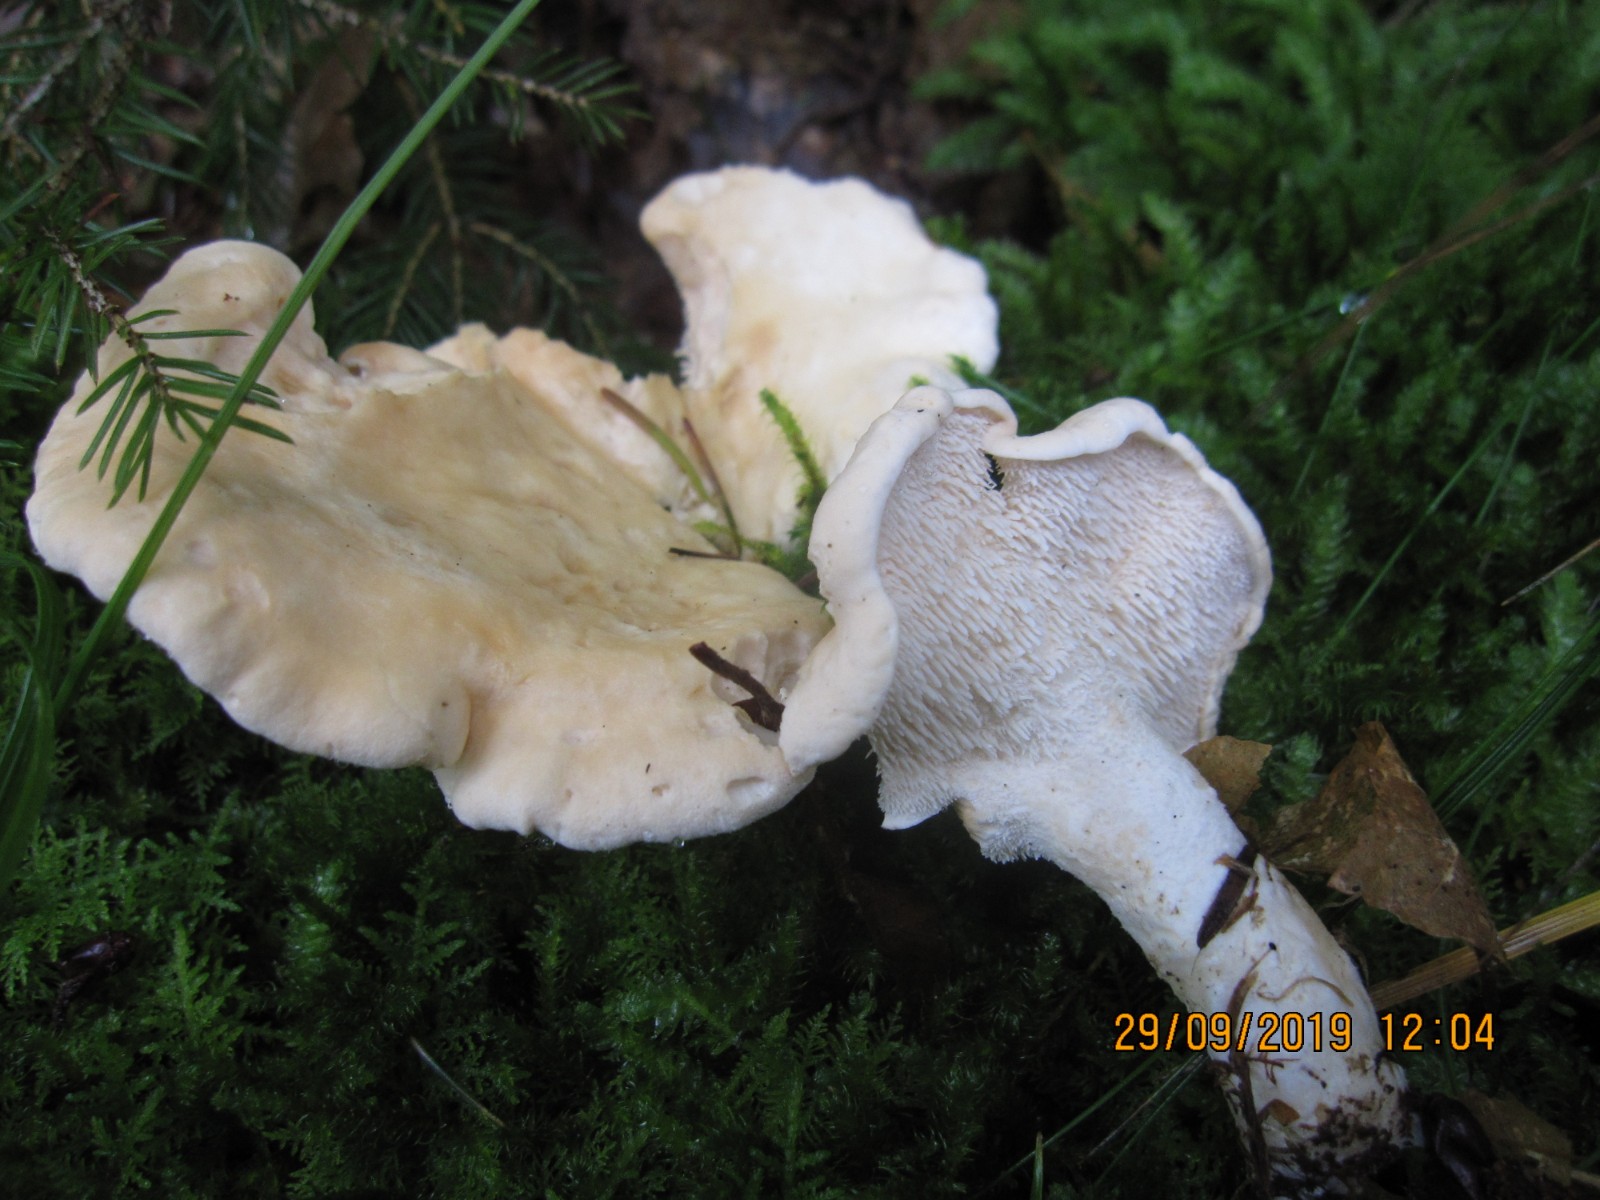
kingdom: Fungi
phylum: Basidiomycota
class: Agaricomycetes
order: Cantharellales
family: Hydnaceae
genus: Hydnum
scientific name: Hydnum repandum
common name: almindelig pigsvamp
